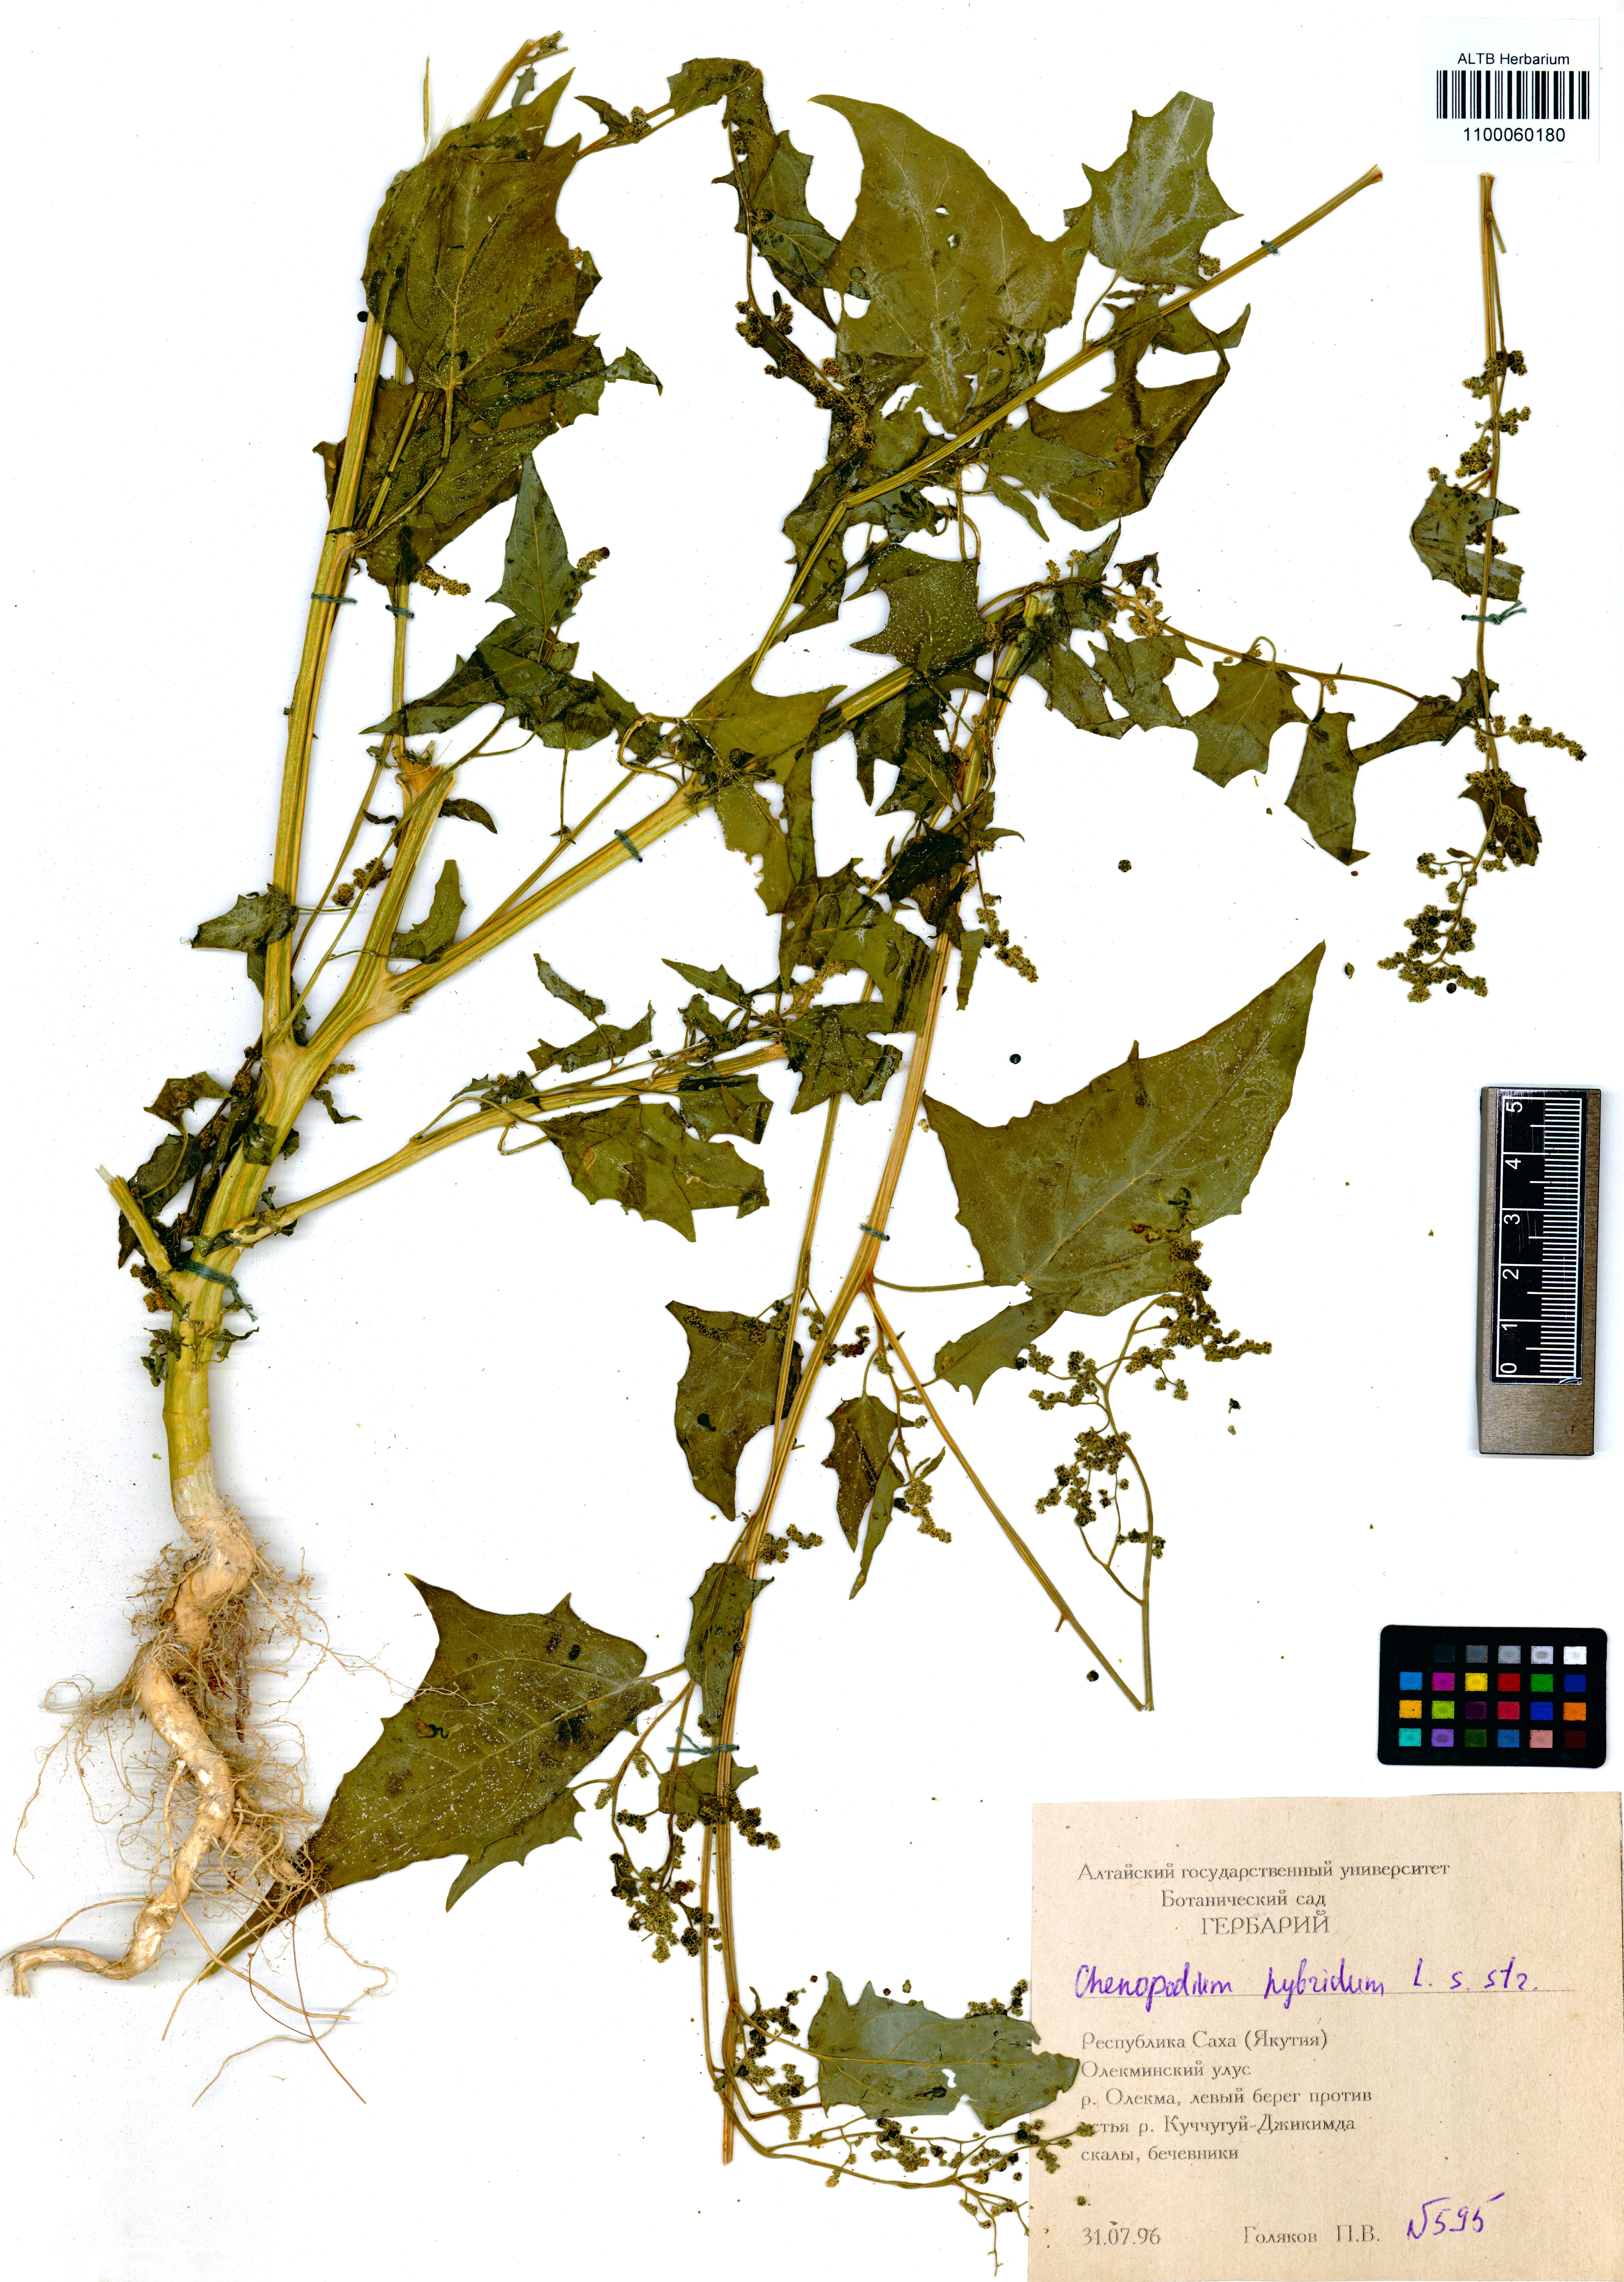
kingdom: Plantae
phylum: Tracheophyta
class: Magnoliopsida
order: Caryophyllales
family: Amaranthaceae
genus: Chenopodiastrum
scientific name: Chenopodiastrum hybridum
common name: Mapleleaf goosefoot
